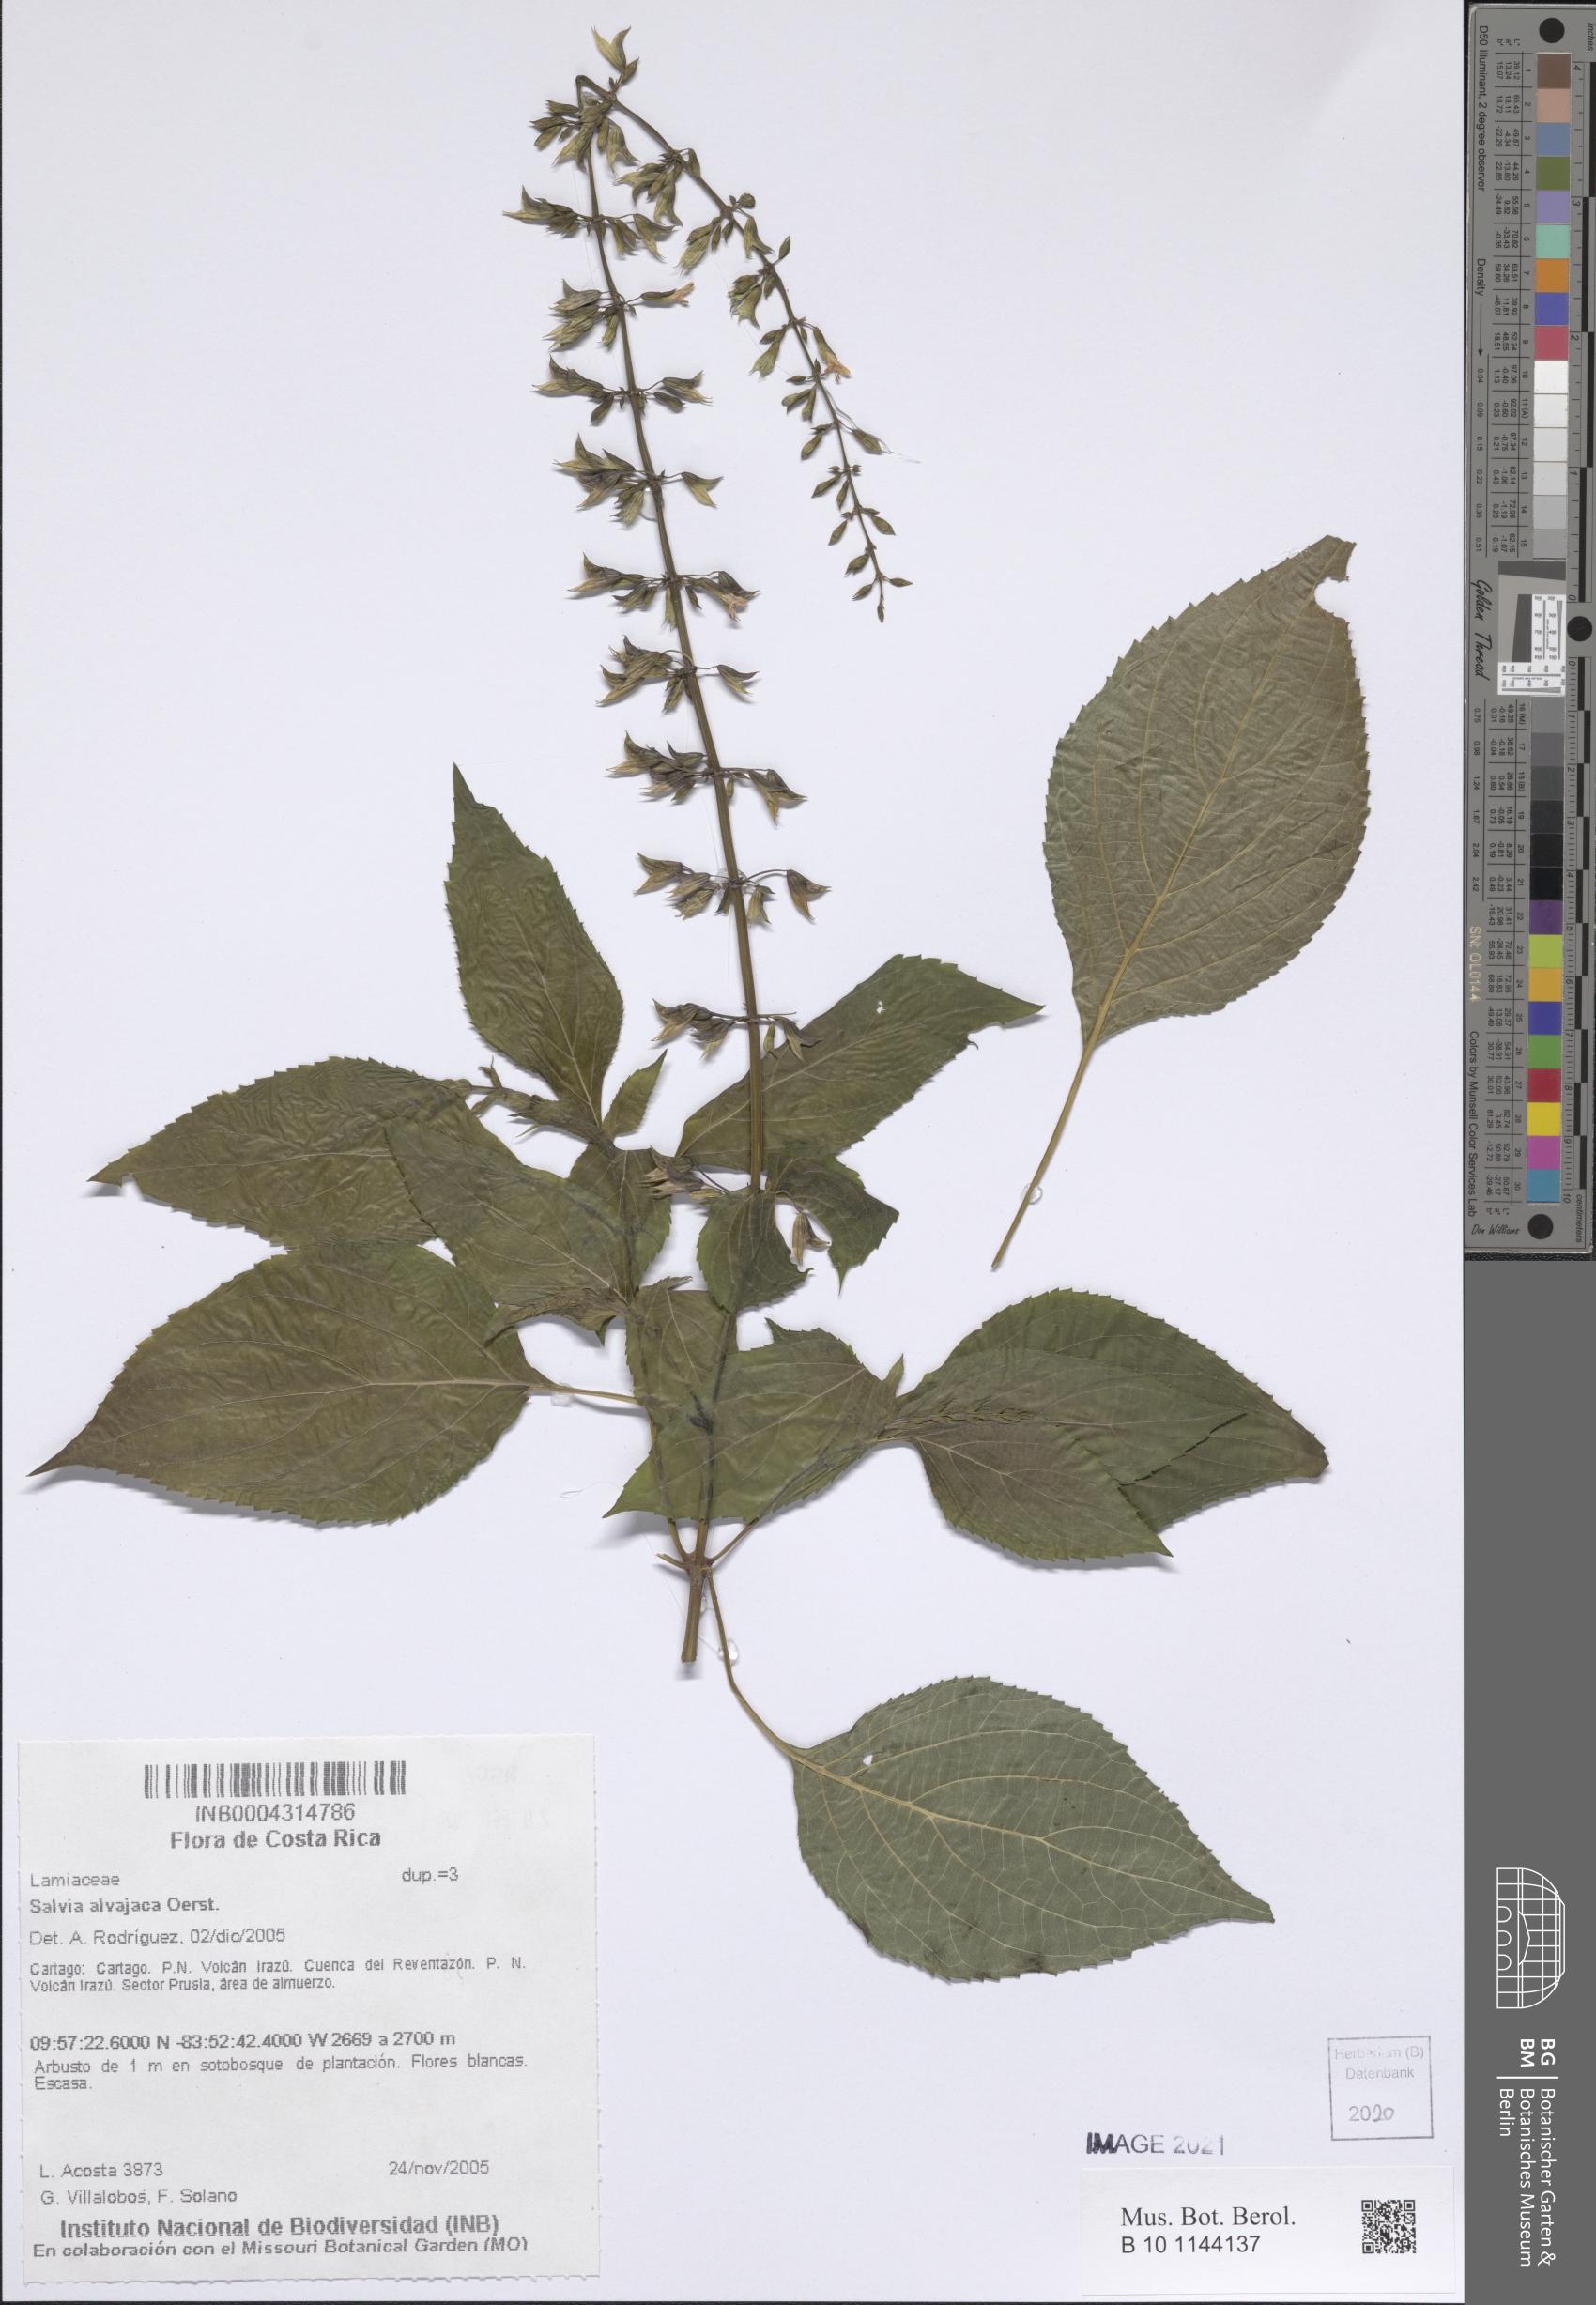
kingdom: Plantae
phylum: Tracheophyta
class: Magnoliopsida
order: Lamiales
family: Lamiaceae
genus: Salvia
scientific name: Salvia alvajaca
